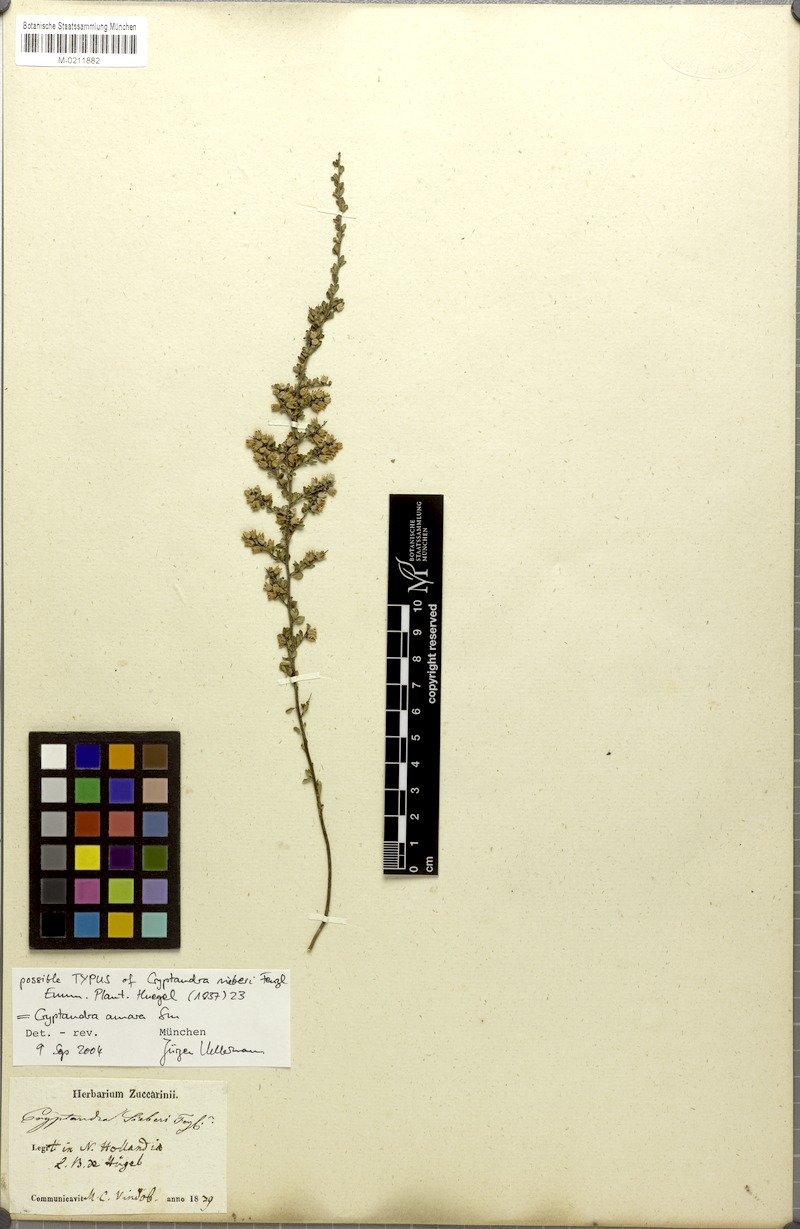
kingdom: Plantae
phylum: Tracheophyta
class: Magnoliopsida
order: Rosales
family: Rhamnaceae
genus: Cryptandra
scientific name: Cryptandra amara
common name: Bitter cryptandra
